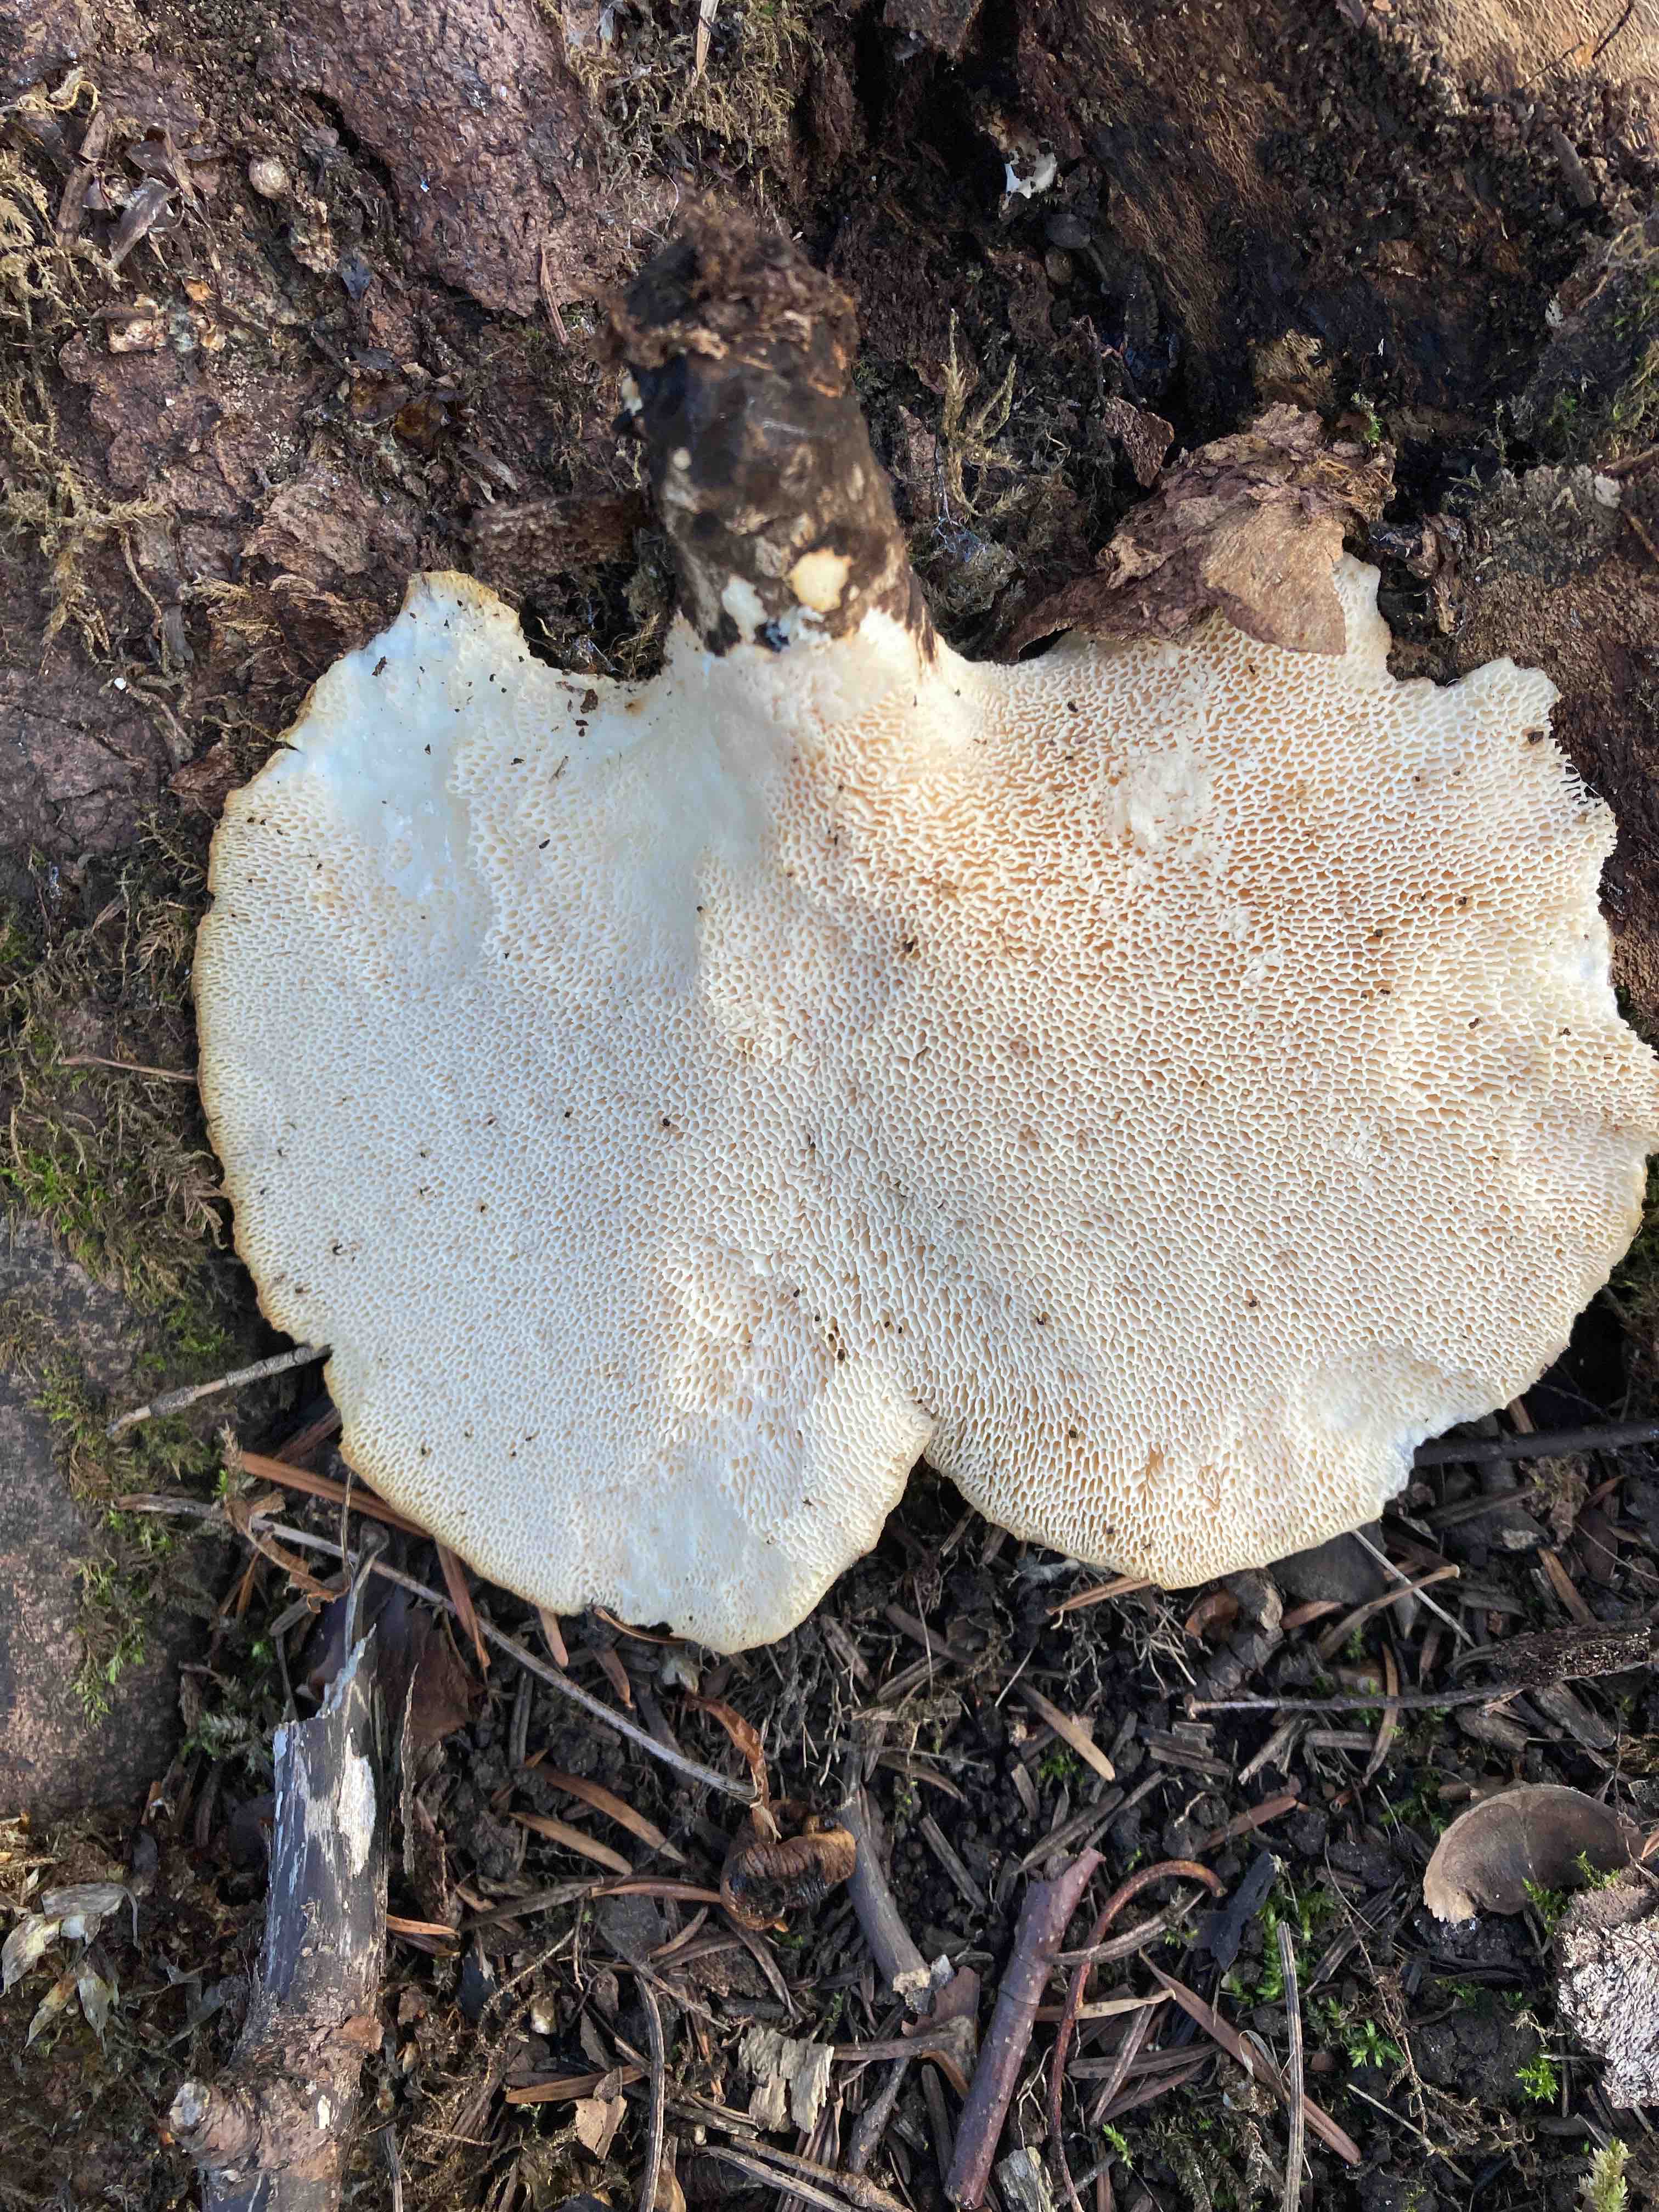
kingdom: Fungi
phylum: Basidiomycota
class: Agaricomycetes
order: Polyporales
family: Polyporaceae
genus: Cerioporus
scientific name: Cerioporus squamosus
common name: skællet stilkporesvamp
